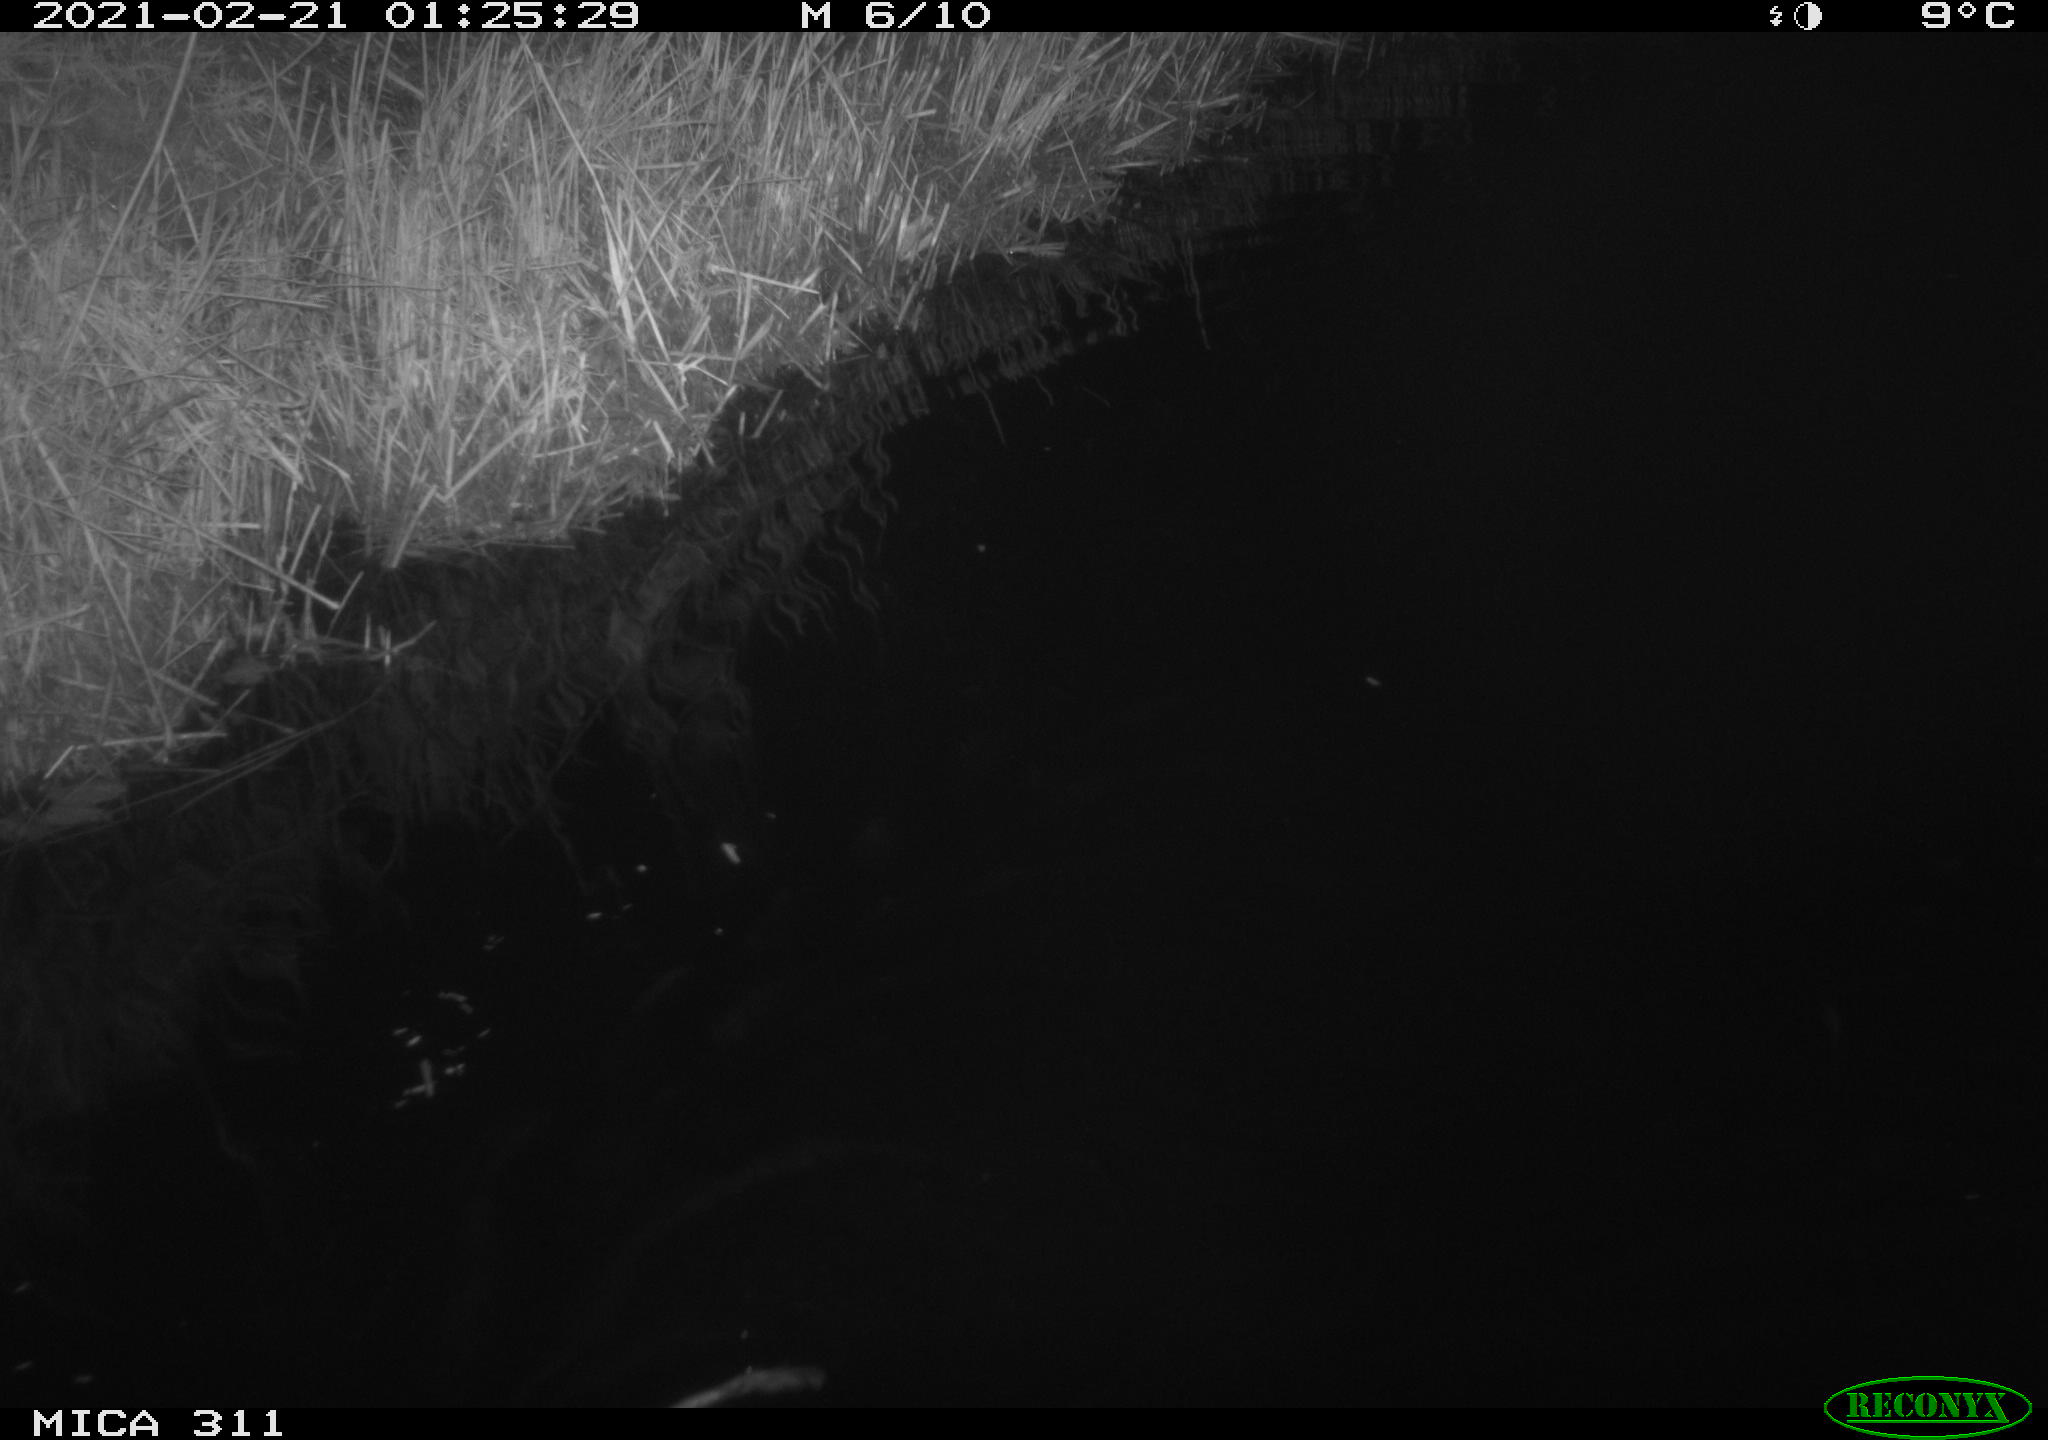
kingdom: Animalia
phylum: Chordata
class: Mammalia
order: Rodentia
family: Cricetidae
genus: Ondatra
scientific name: Ondatra zibethicus
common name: Muskrat
